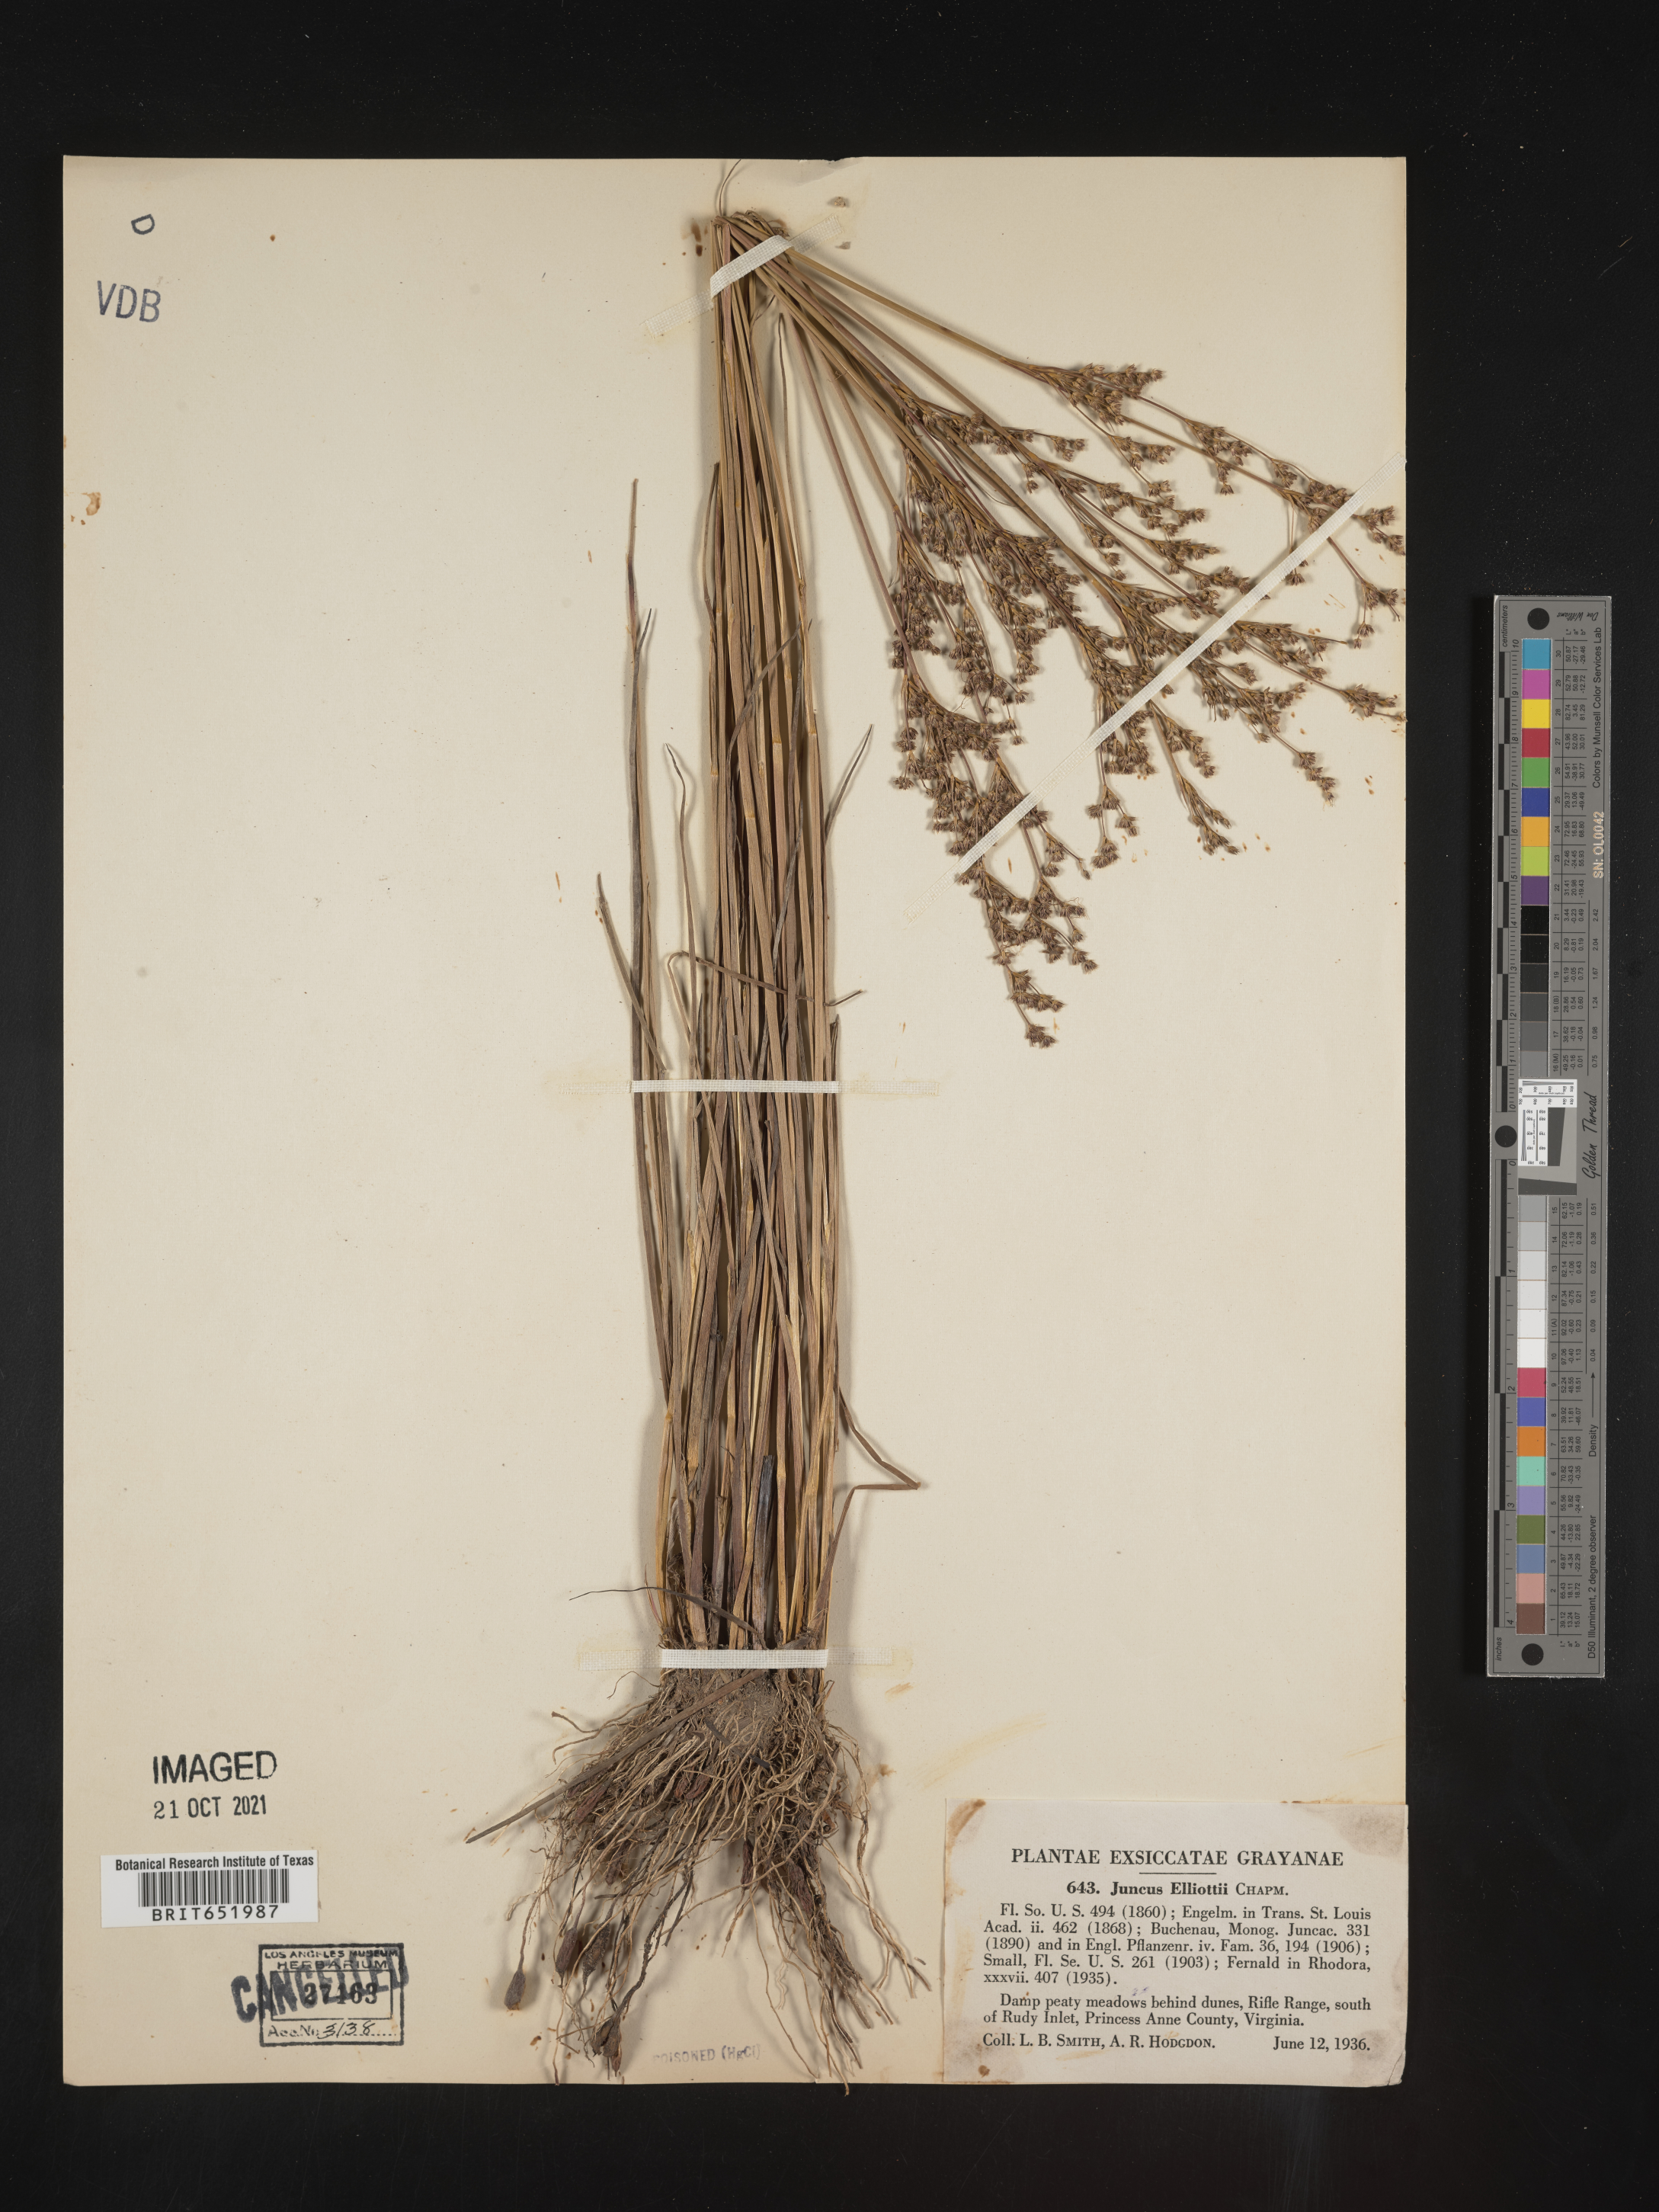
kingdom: Plantae
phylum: Tracheophyta
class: Liliopsida
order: Poales
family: Juncaceae
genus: Juncus
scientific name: Juncus elliottii
